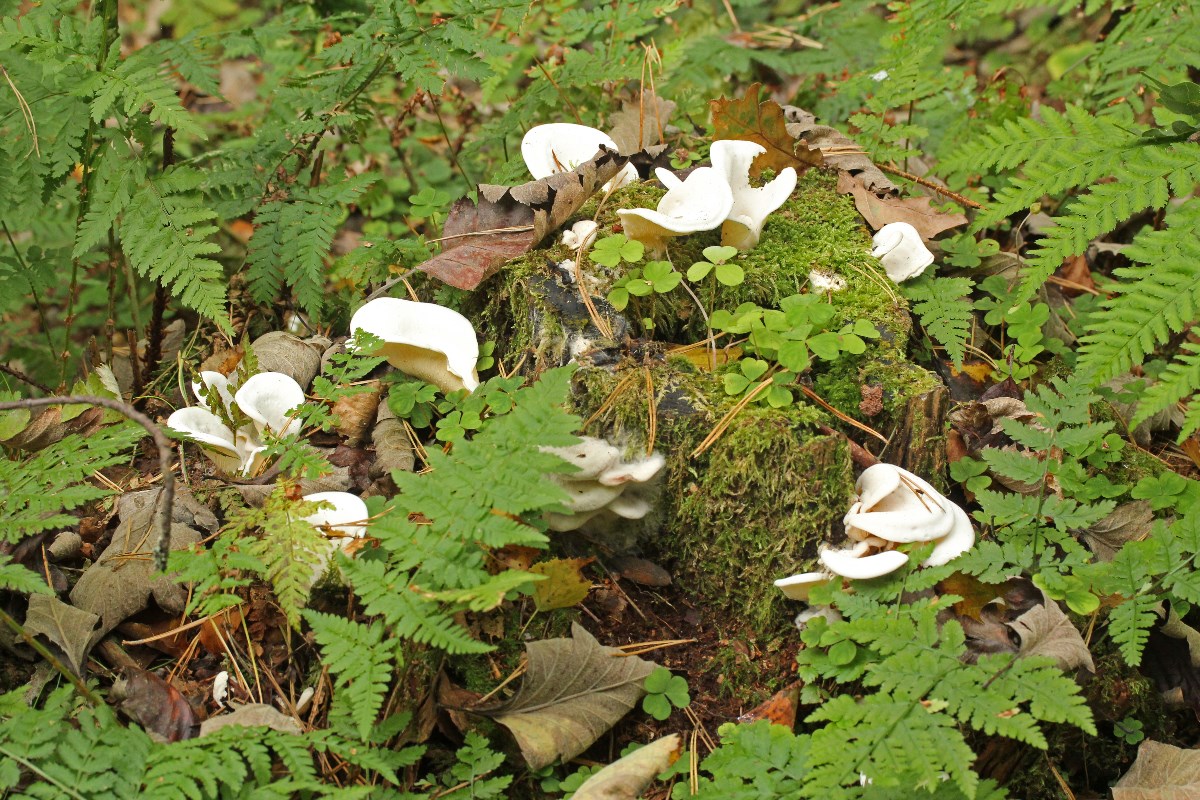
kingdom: Fungi
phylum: Basidiomycota
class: Agaricomycetes
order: Agaricales
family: Marasmiaceae
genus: Pleurocybella
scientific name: Pleurocybella porrigens
